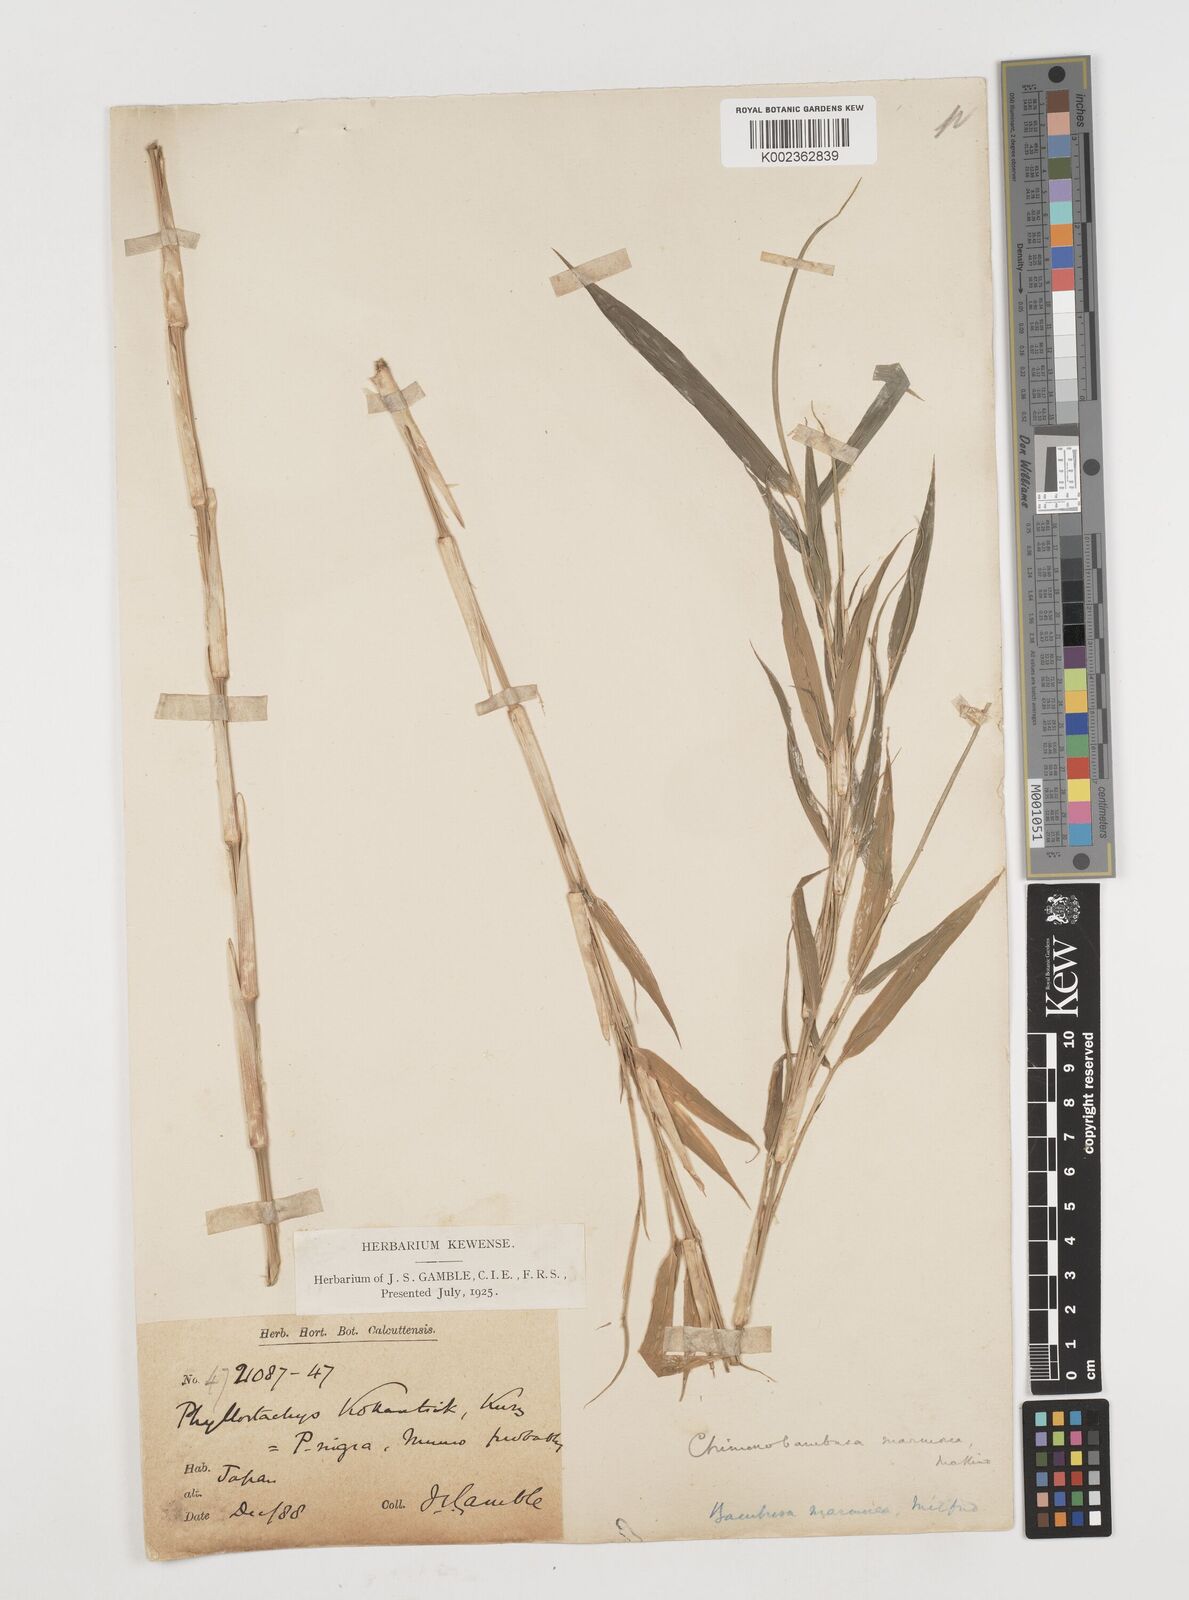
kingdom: Plantae
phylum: Tracheophyta
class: Liliopsida
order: Poales
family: Poaceae
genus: Chimonobambusa
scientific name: Chimonobambusa marmorea
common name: Marbled bamboo
